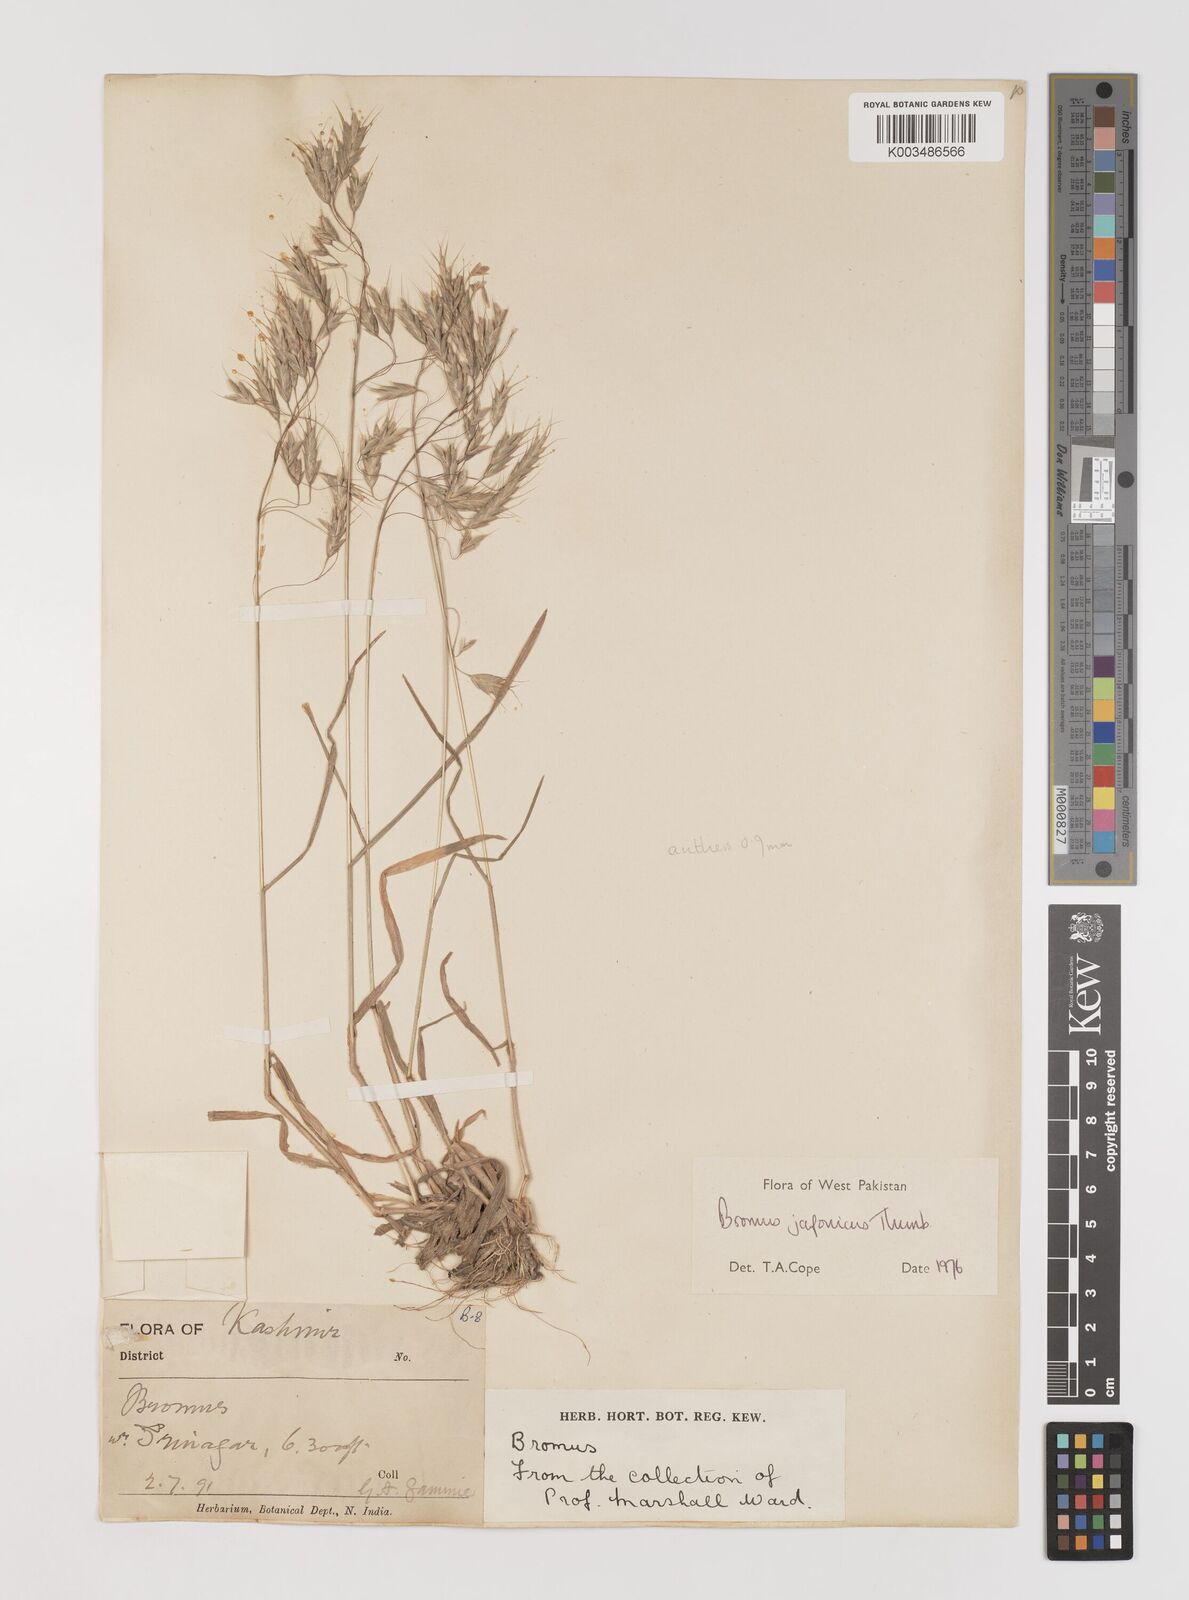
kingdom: Plantae
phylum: Tracheophyta
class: Liliopsida
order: Poales
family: Poaceae
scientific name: Poaceae
